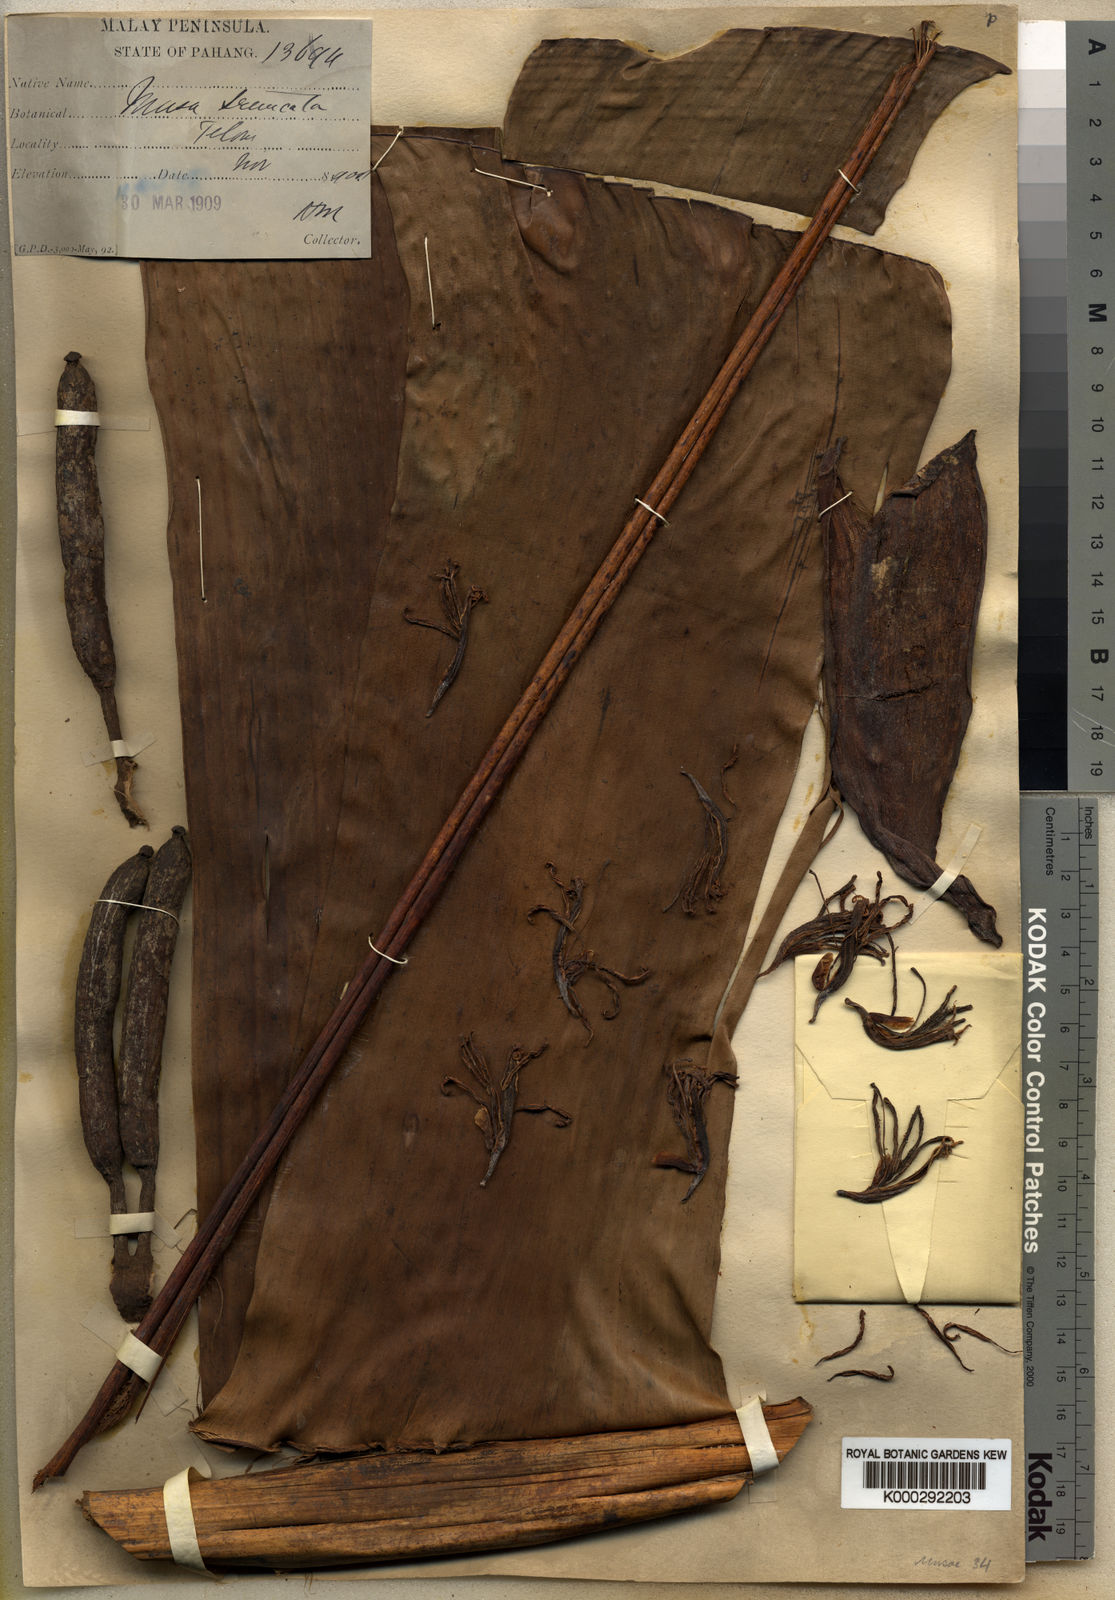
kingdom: Plantae
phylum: Tracheophyta
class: Liliopsida
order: Zingiberales
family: Musaceae
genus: Musa
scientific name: Musa acuminata
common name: Edible banana
